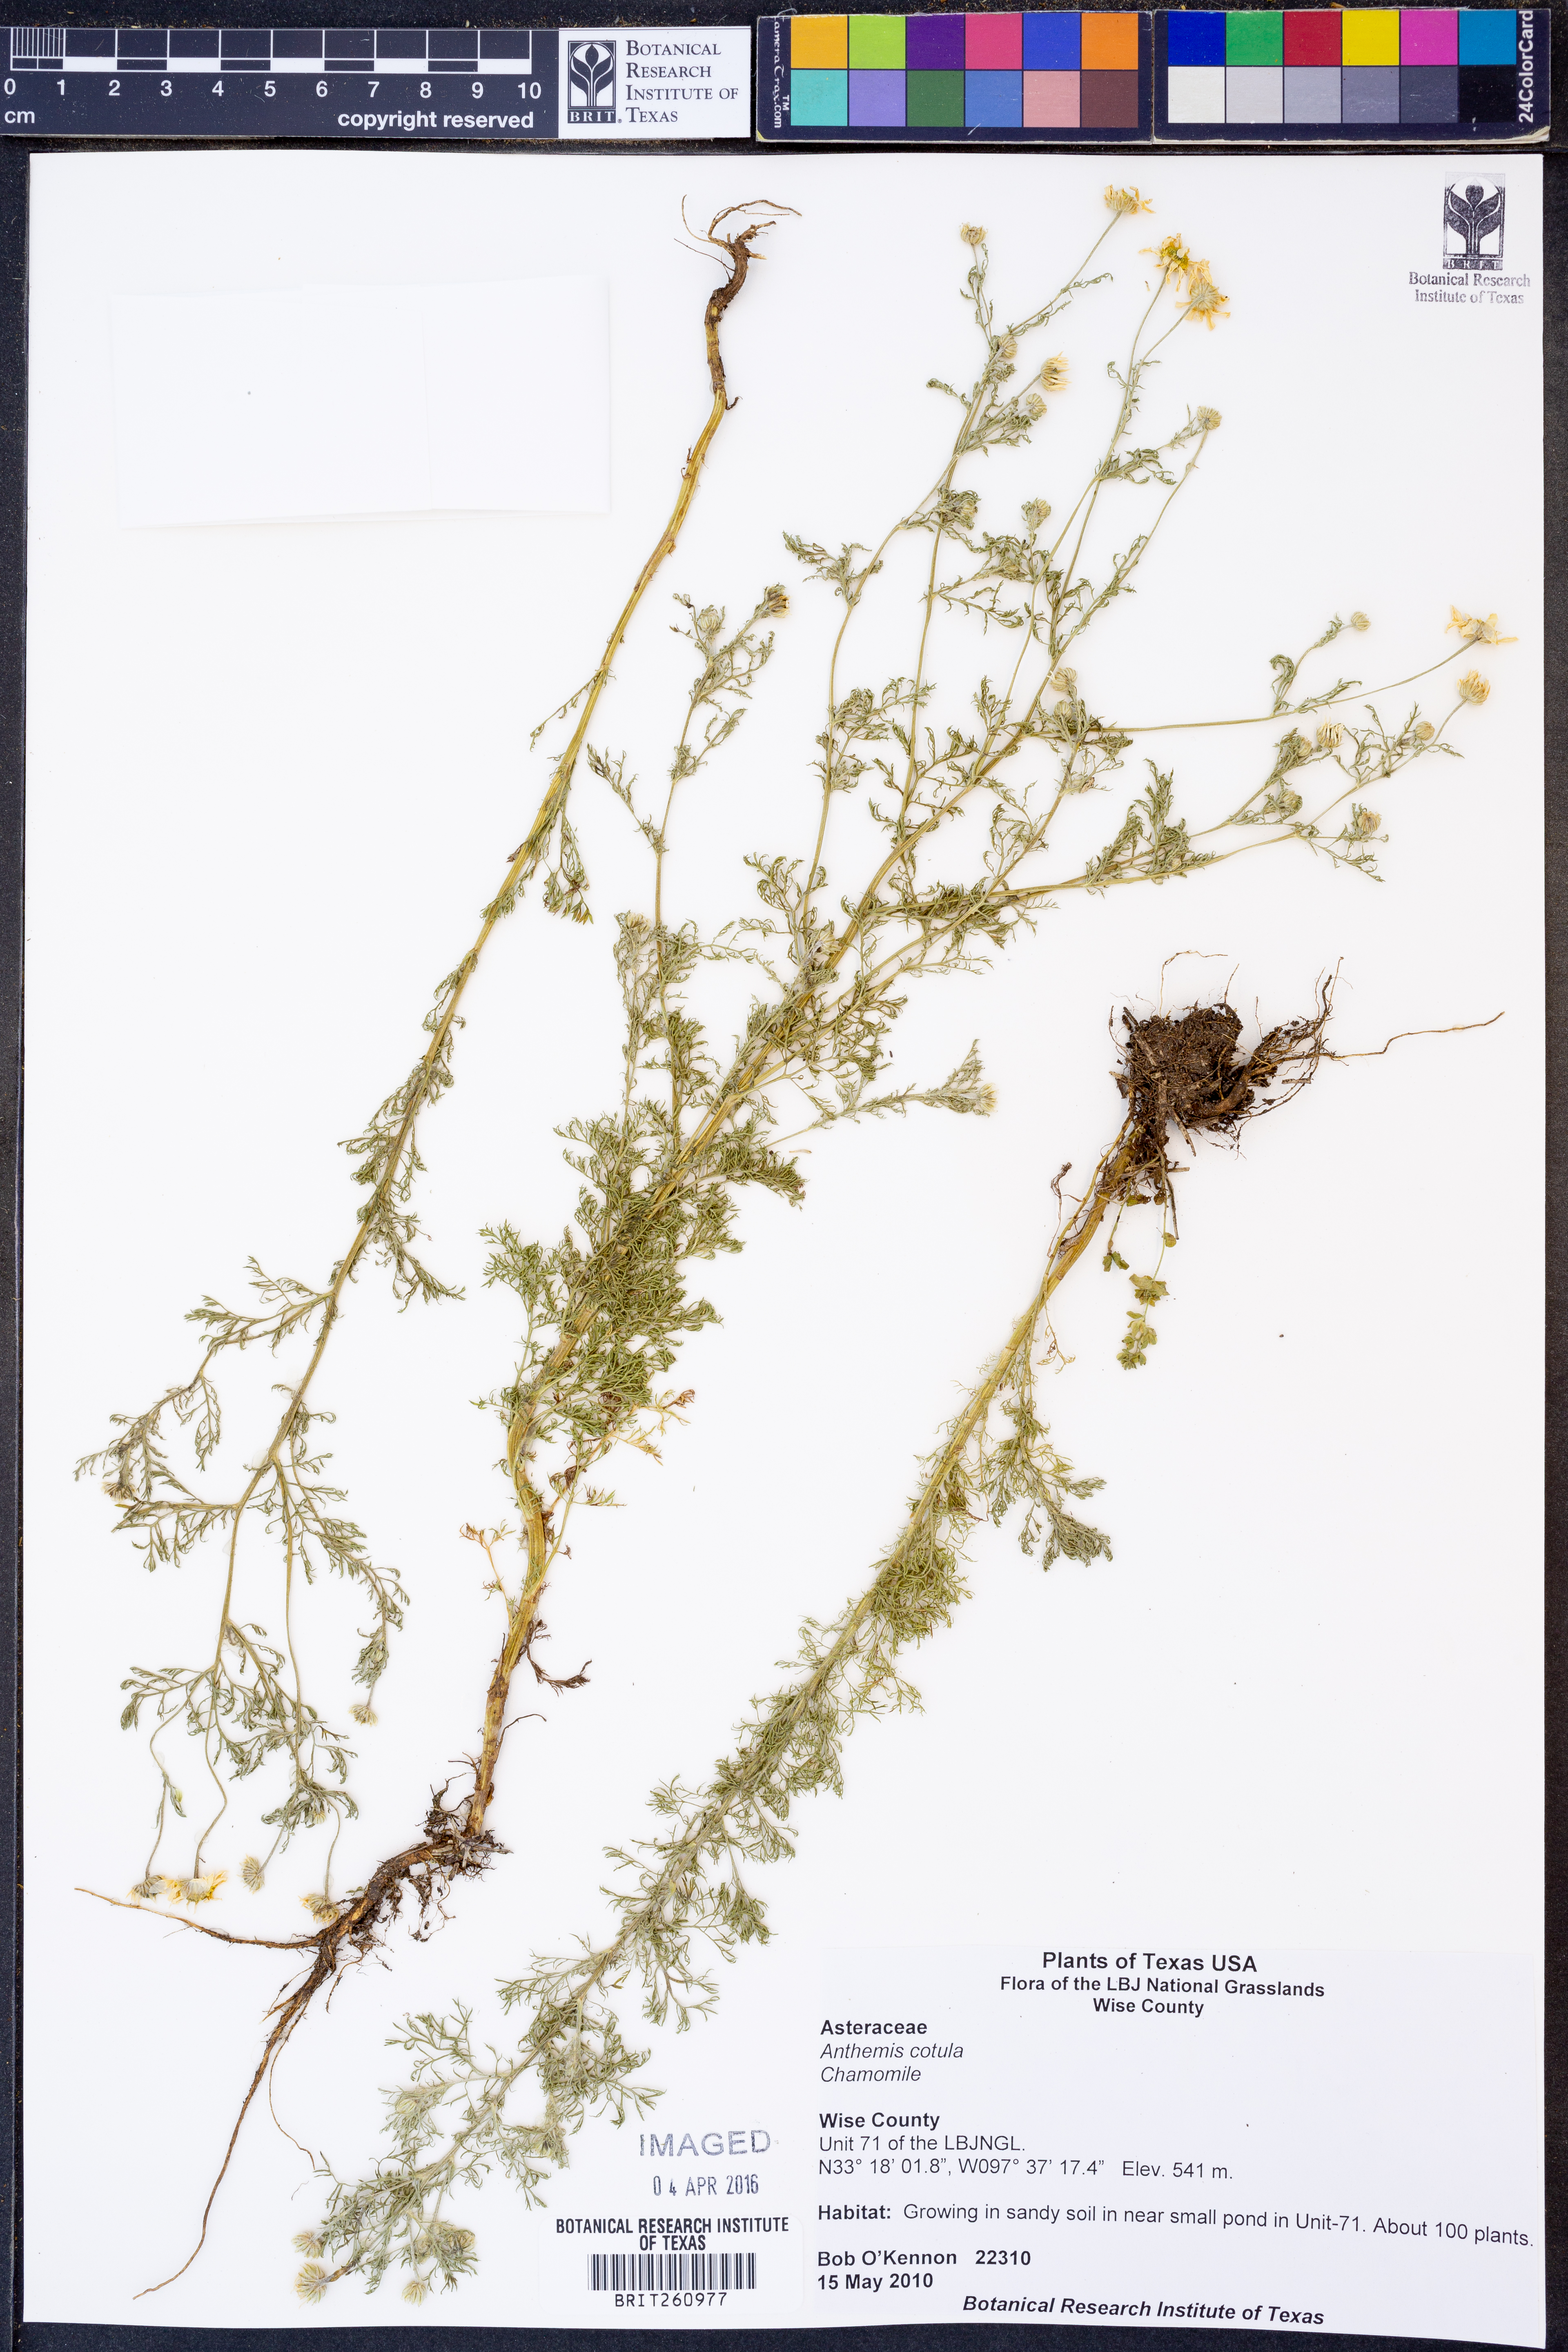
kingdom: Plantae
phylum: Tracheophyta
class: Magnoliopsida
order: Asterales
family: Asteraceae
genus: Anthemis
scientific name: Anthemis cotula
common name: Stinking chamomile
